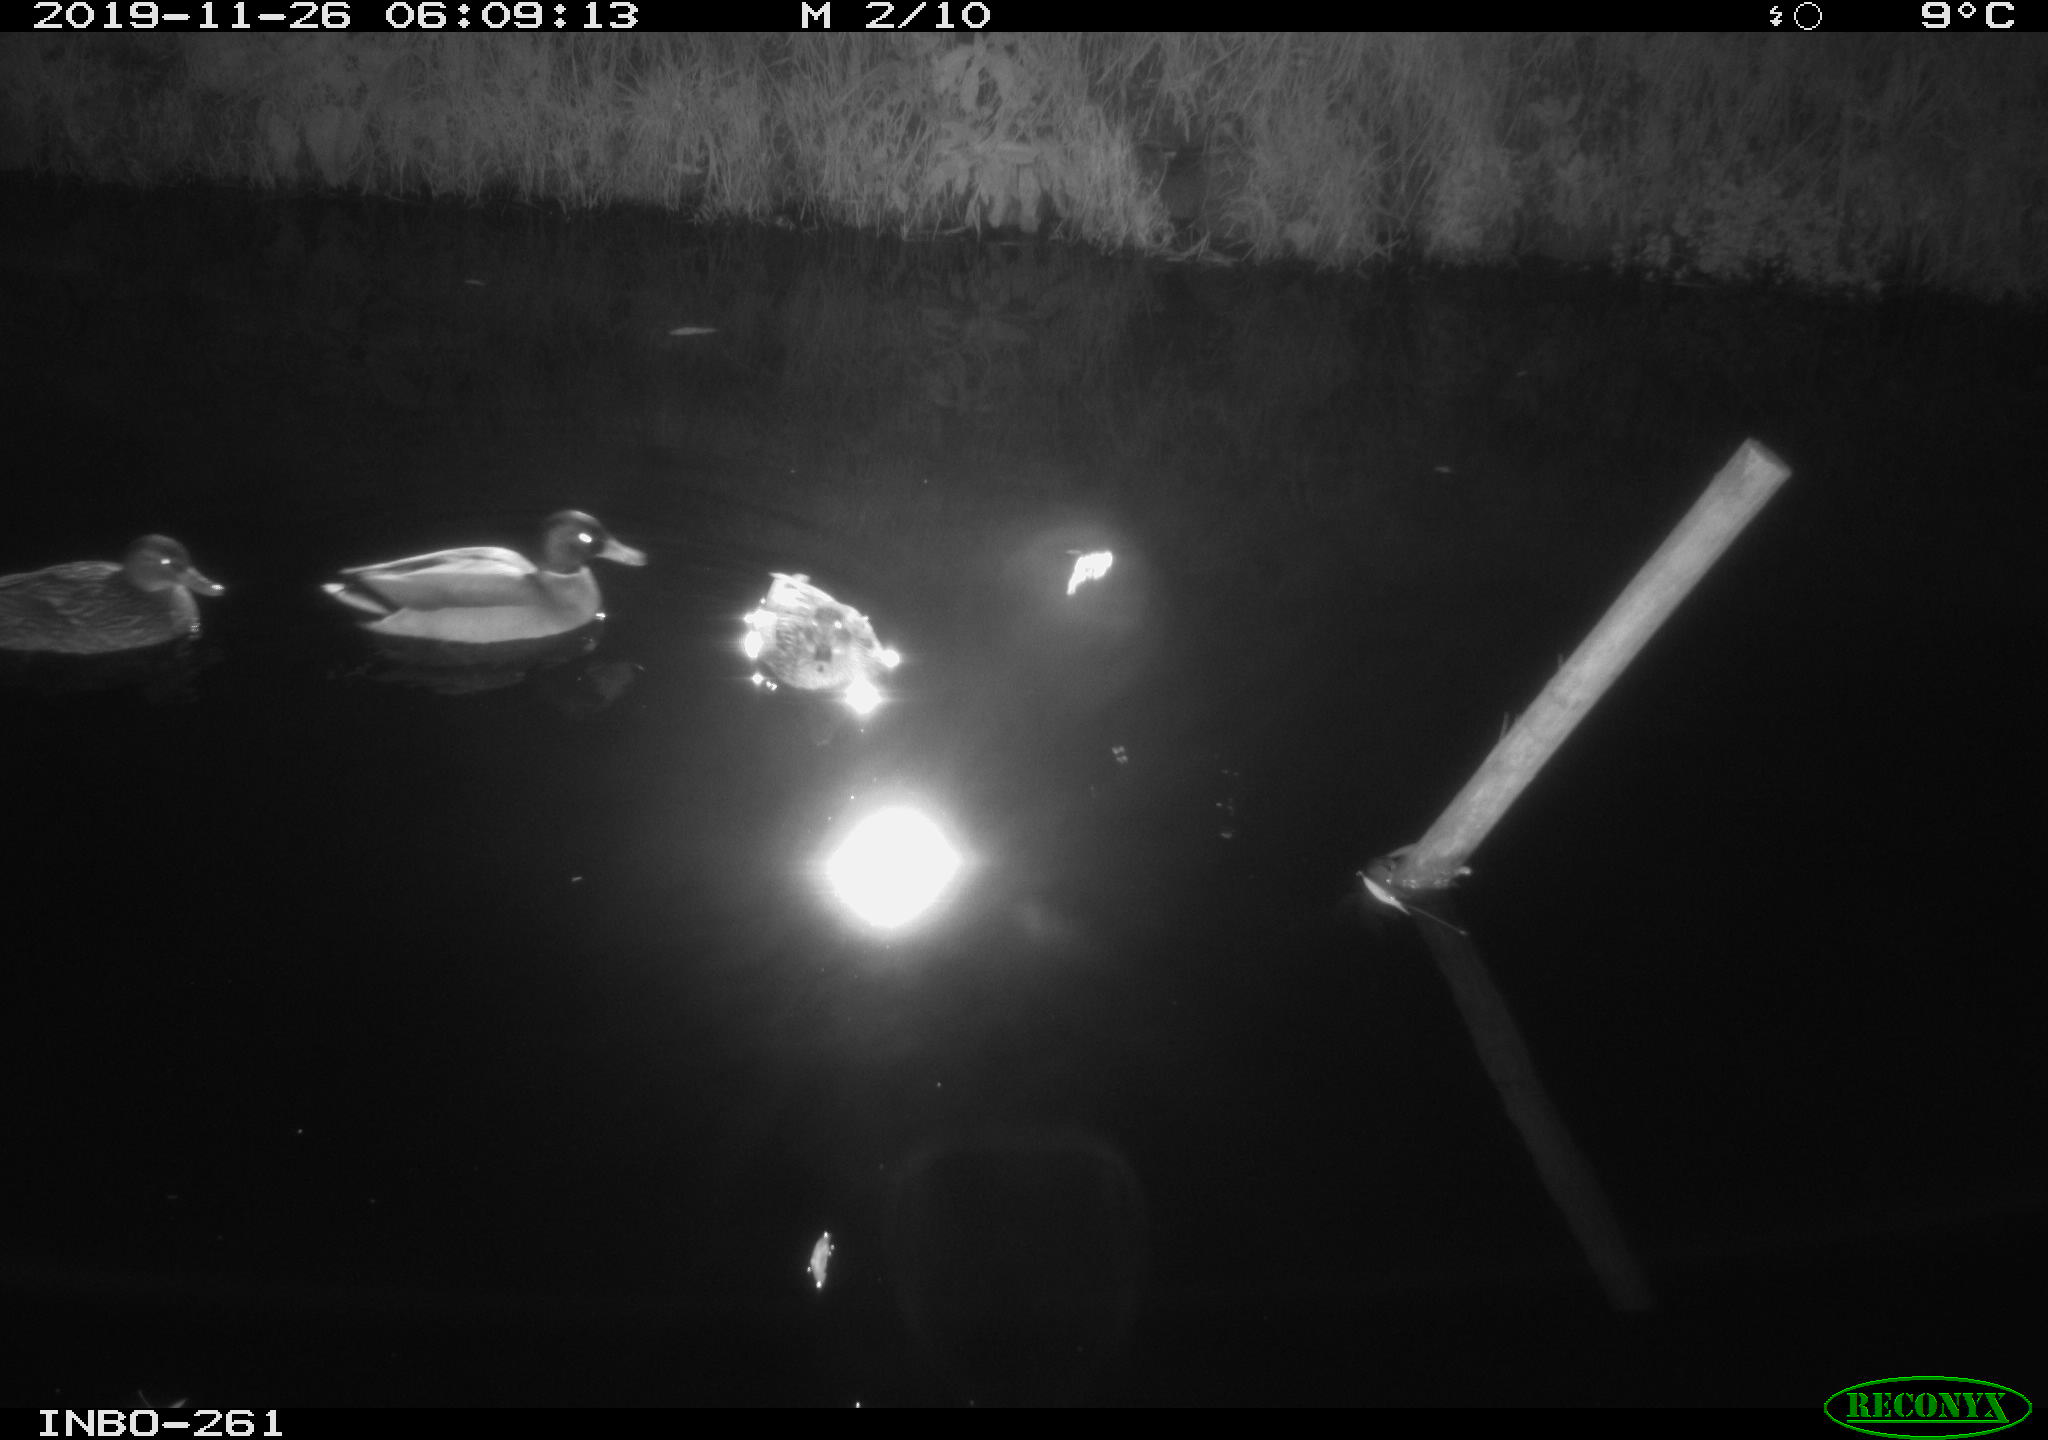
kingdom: Animalia
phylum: Chordata
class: Aves
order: Anseriformes
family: Anatidae
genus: Anas
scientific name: Anas platyrhynchos
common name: Mallard
